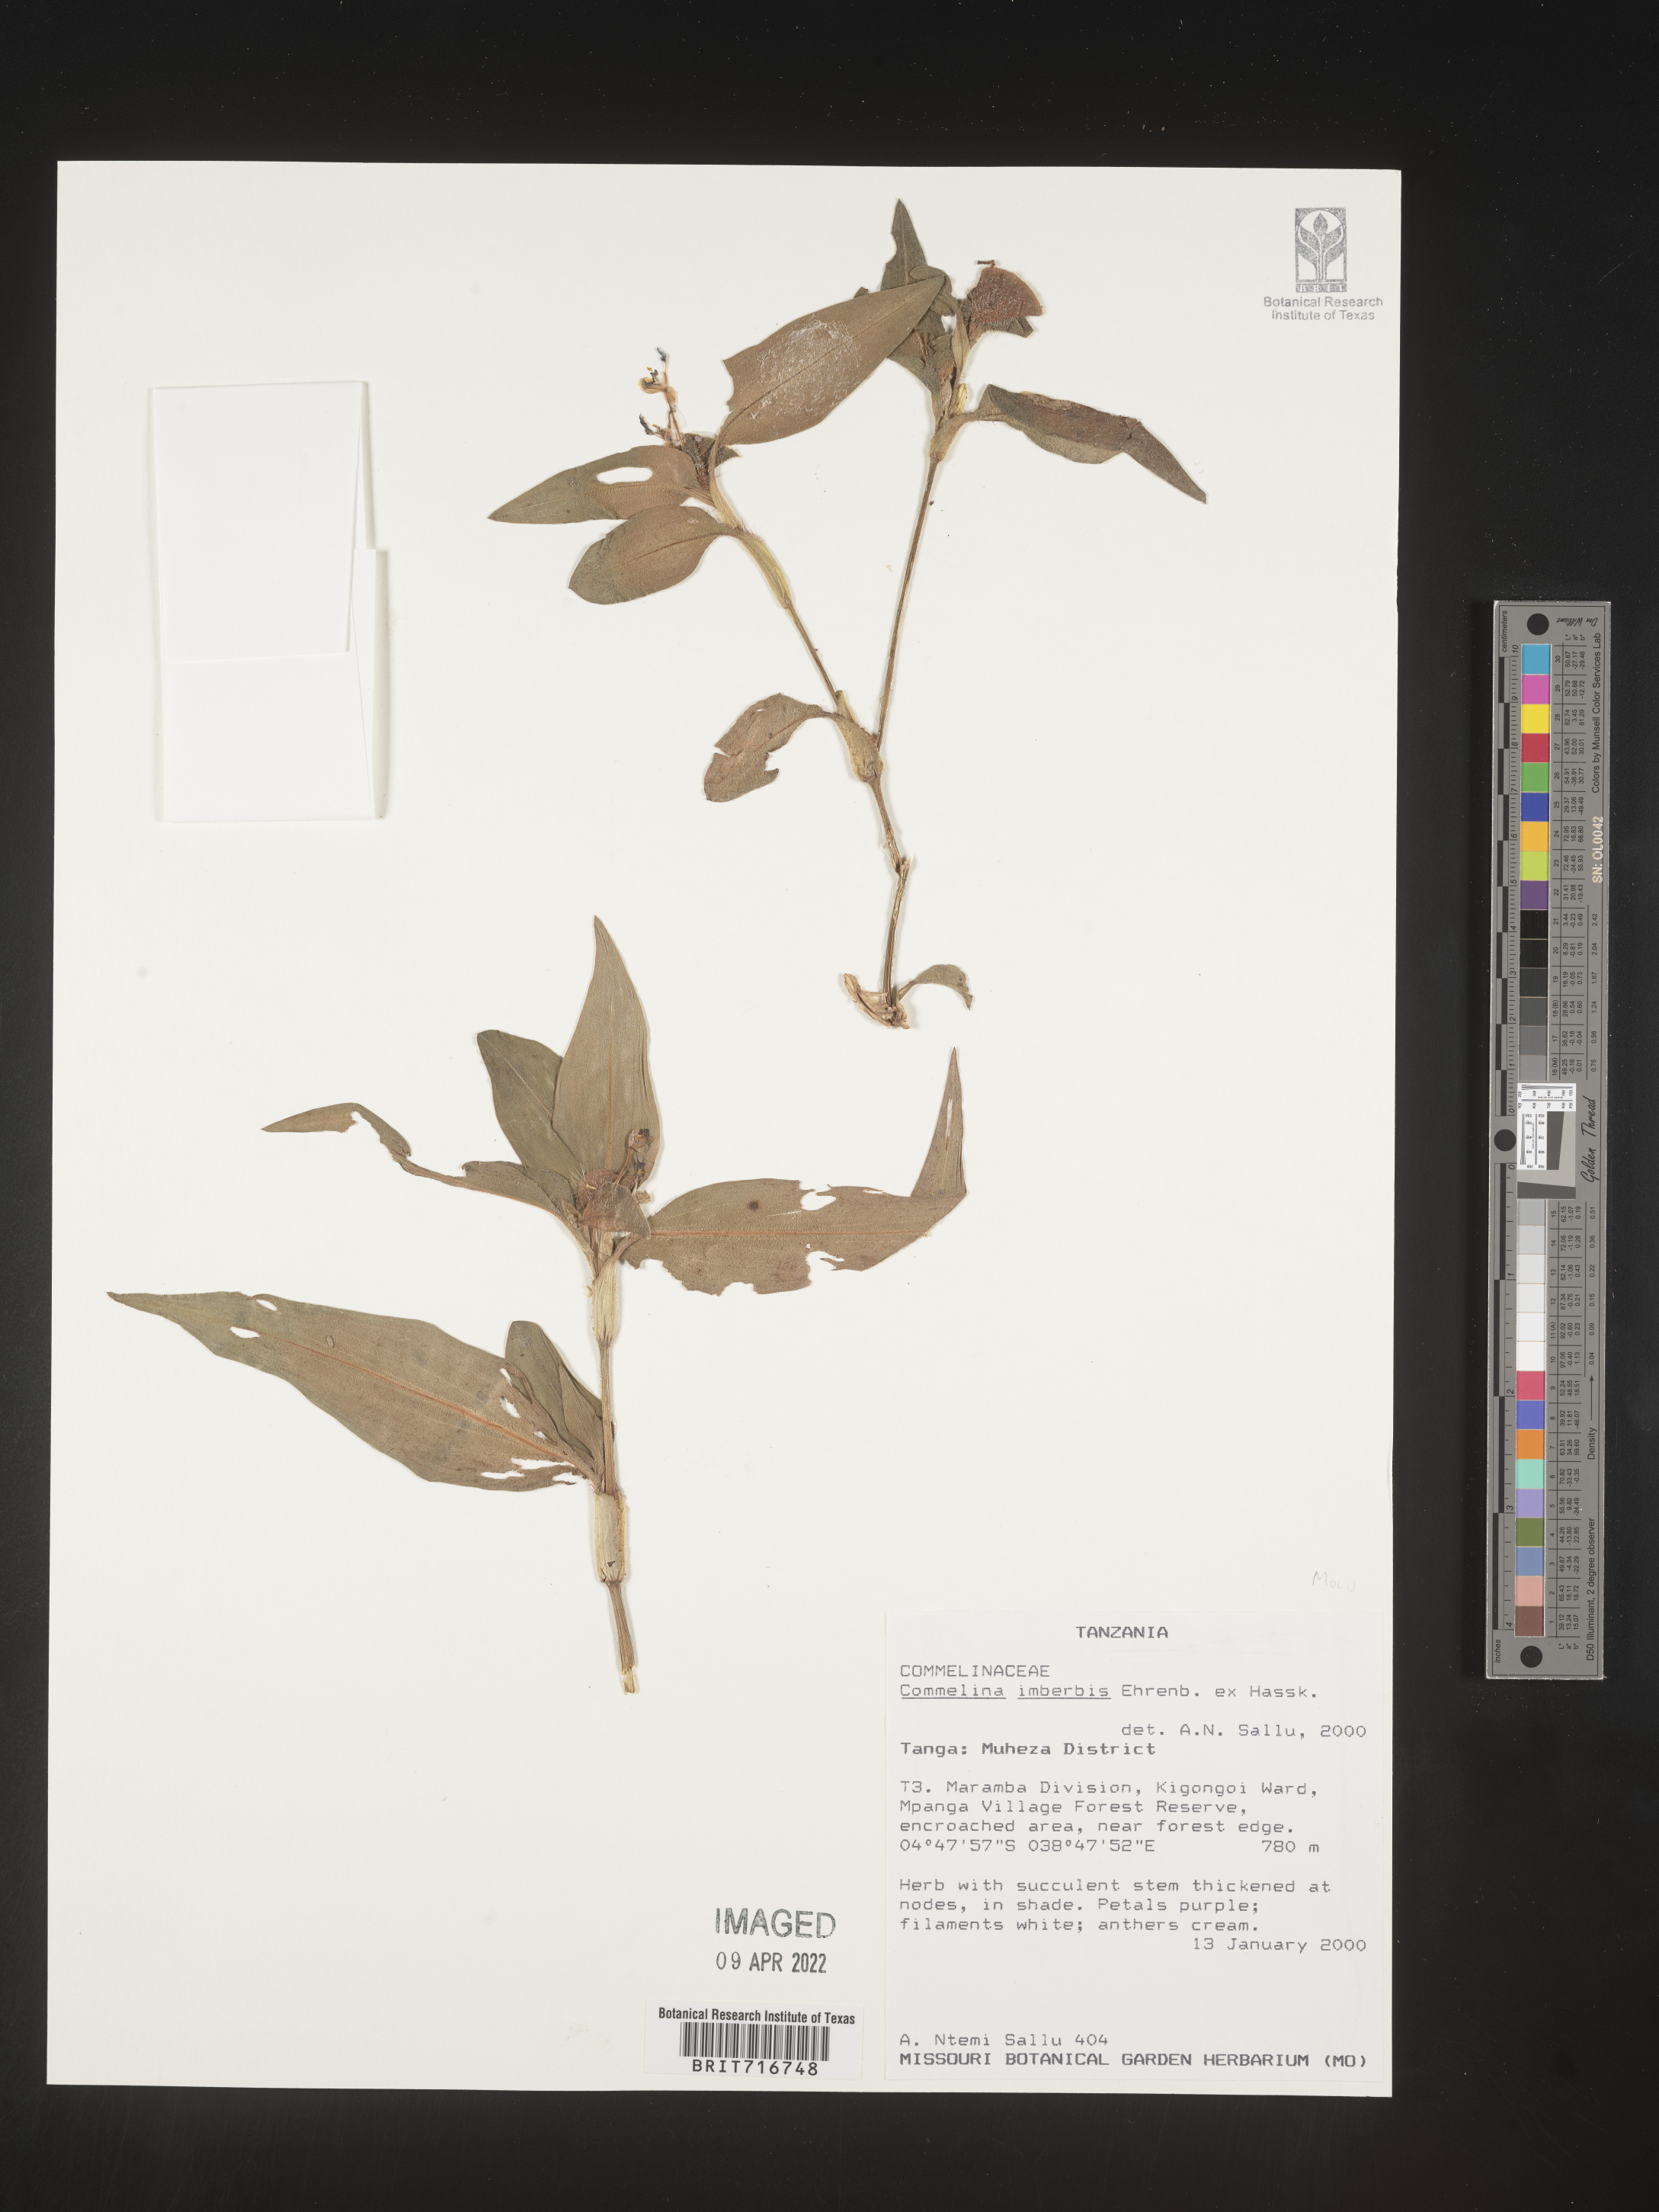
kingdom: Plantae
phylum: Tracheophyta
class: Liliopsida
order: Commelinales
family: Commelinaceae
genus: Commelina
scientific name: Commelina
